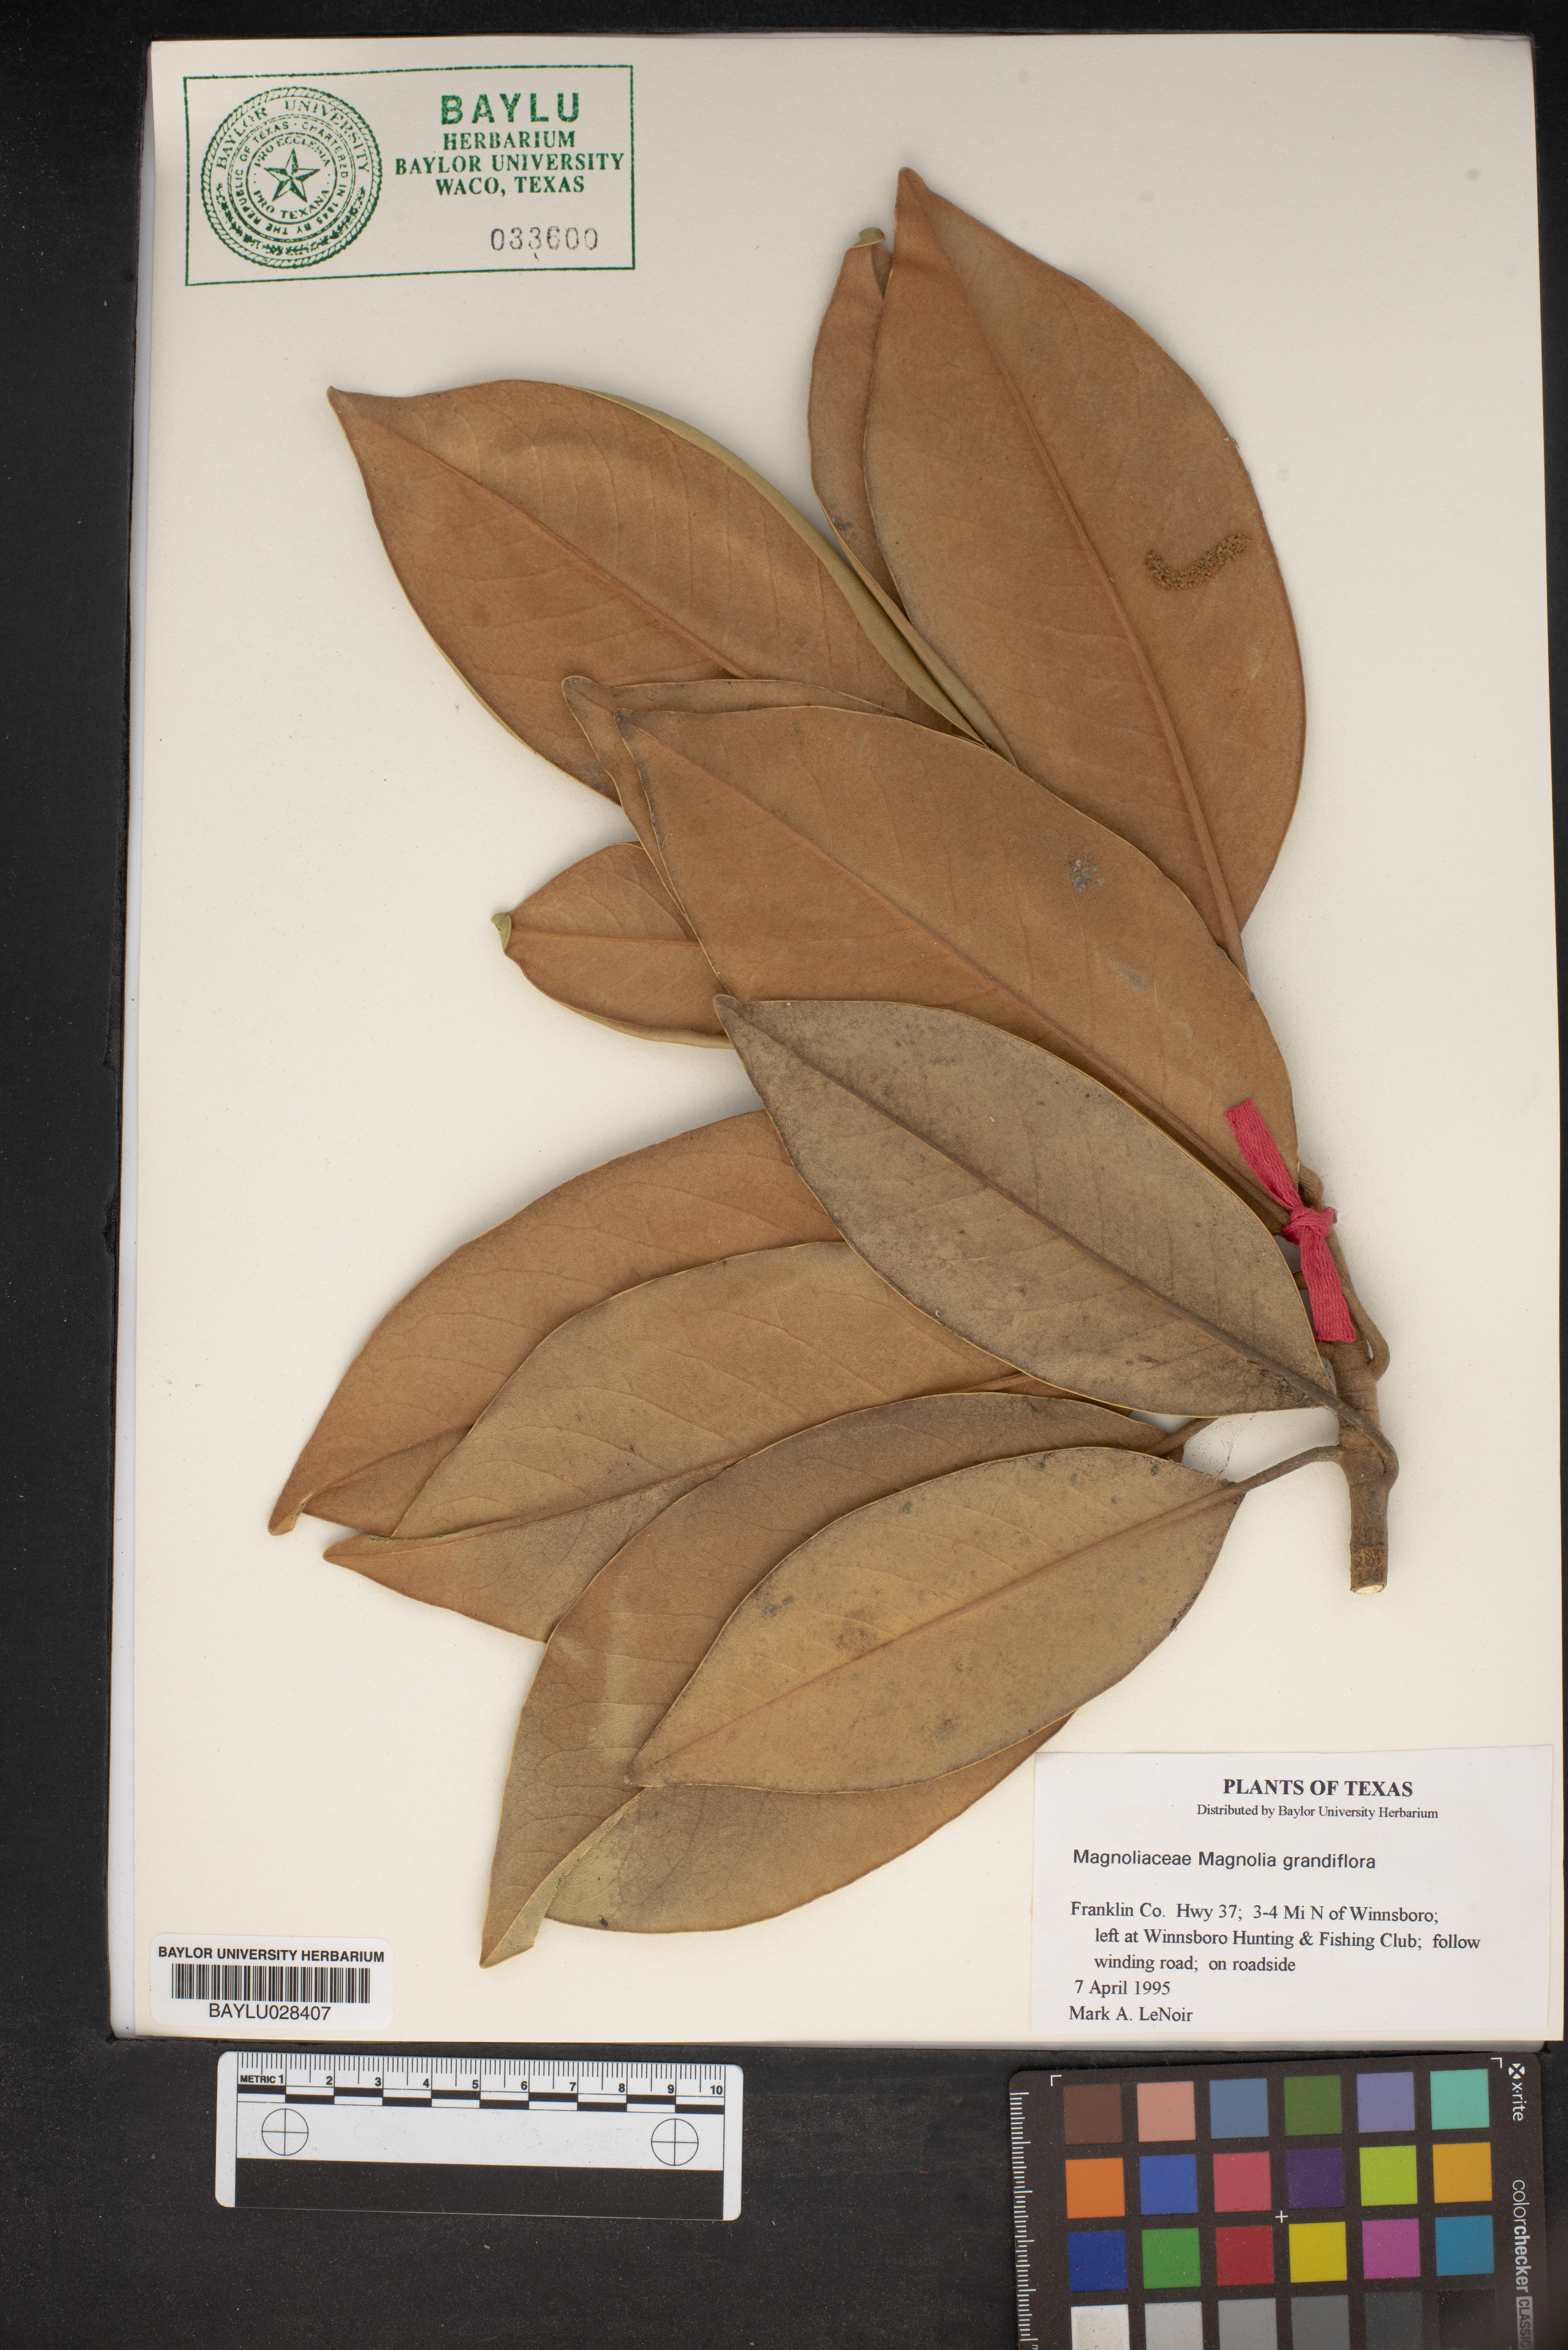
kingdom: Plantae
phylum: Tracheophyta
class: Magnoliopsida
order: Magnoliales
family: Magnoliaceae
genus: Magnolia
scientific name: Magnolia grandiflora
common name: Southern magnolia
